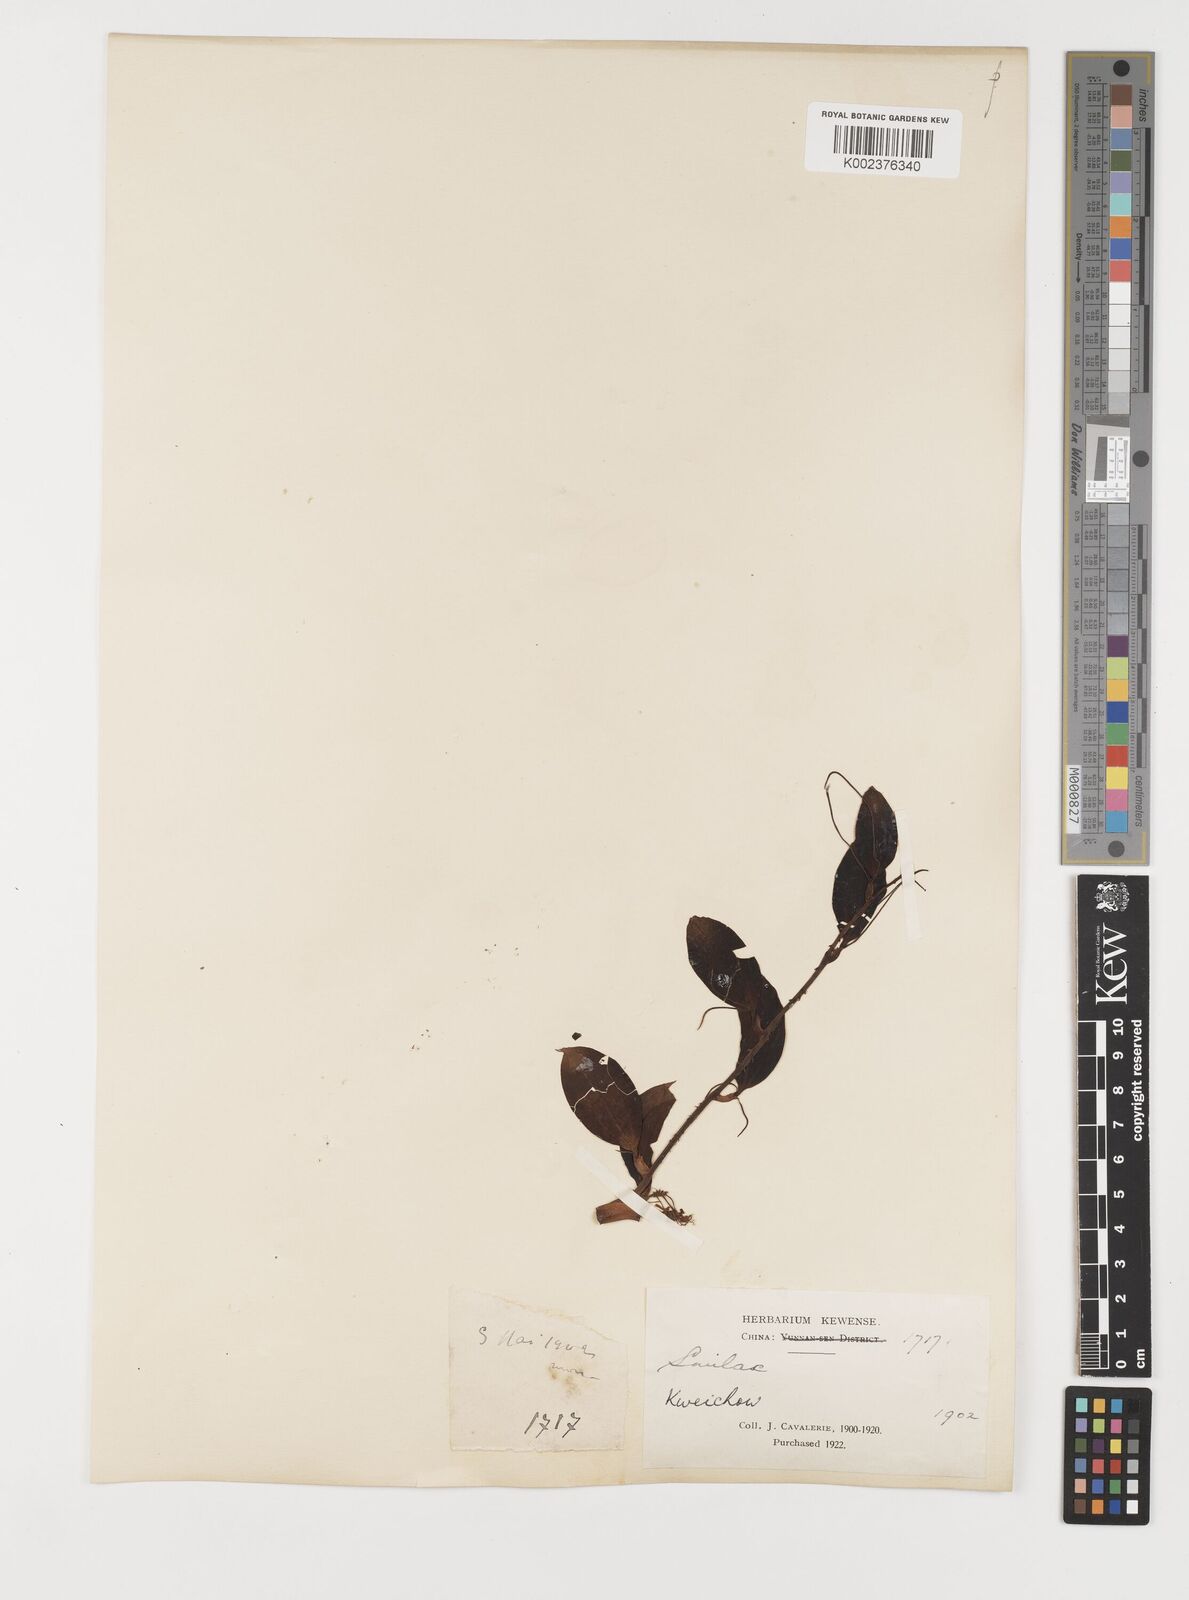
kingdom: Plantae
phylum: Tracheophyta
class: Liliopsida
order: Liliales
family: Smilacaceae
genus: Smilax
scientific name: Smilax china
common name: Chinaroot
